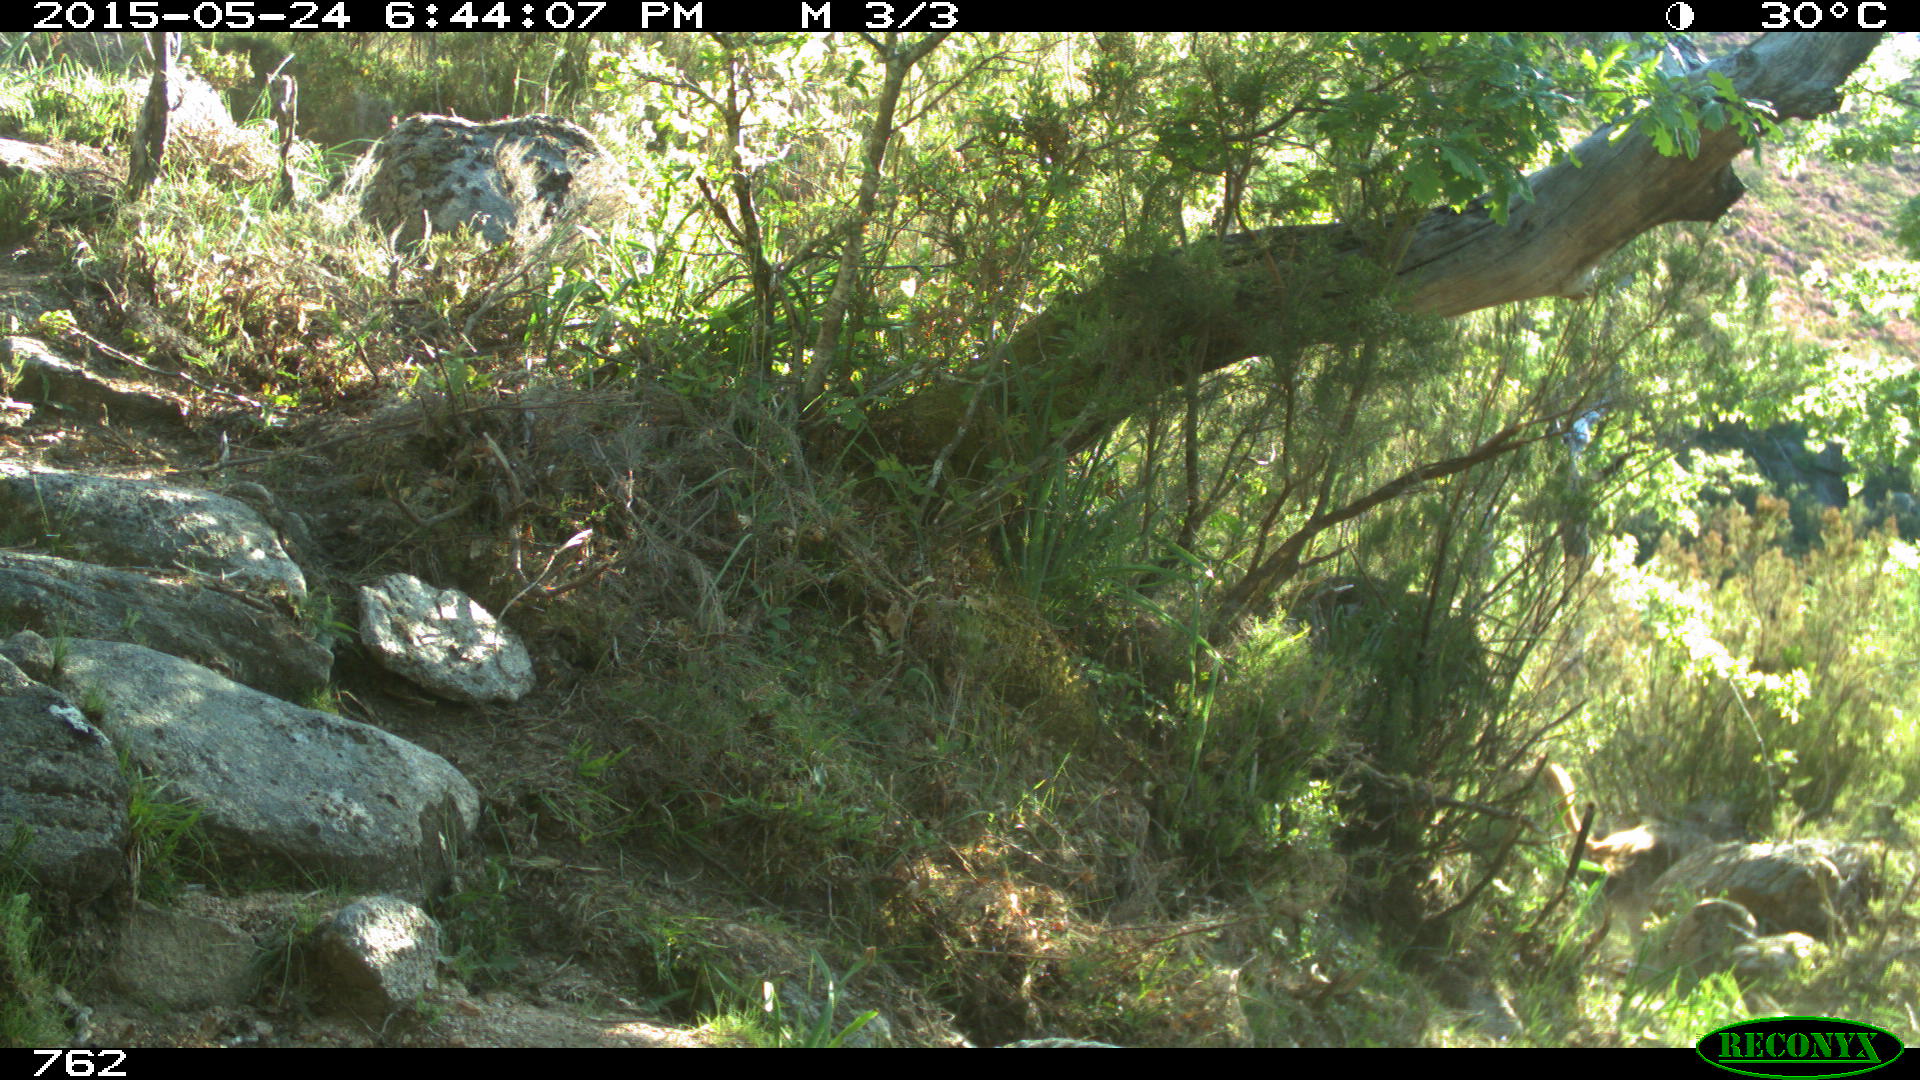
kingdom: Animalia
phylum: Chordata
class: Mammalia
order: Artiodactyla
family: Bovidae
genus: Bos
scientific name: Bos taurus
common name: Domesticated cattle
